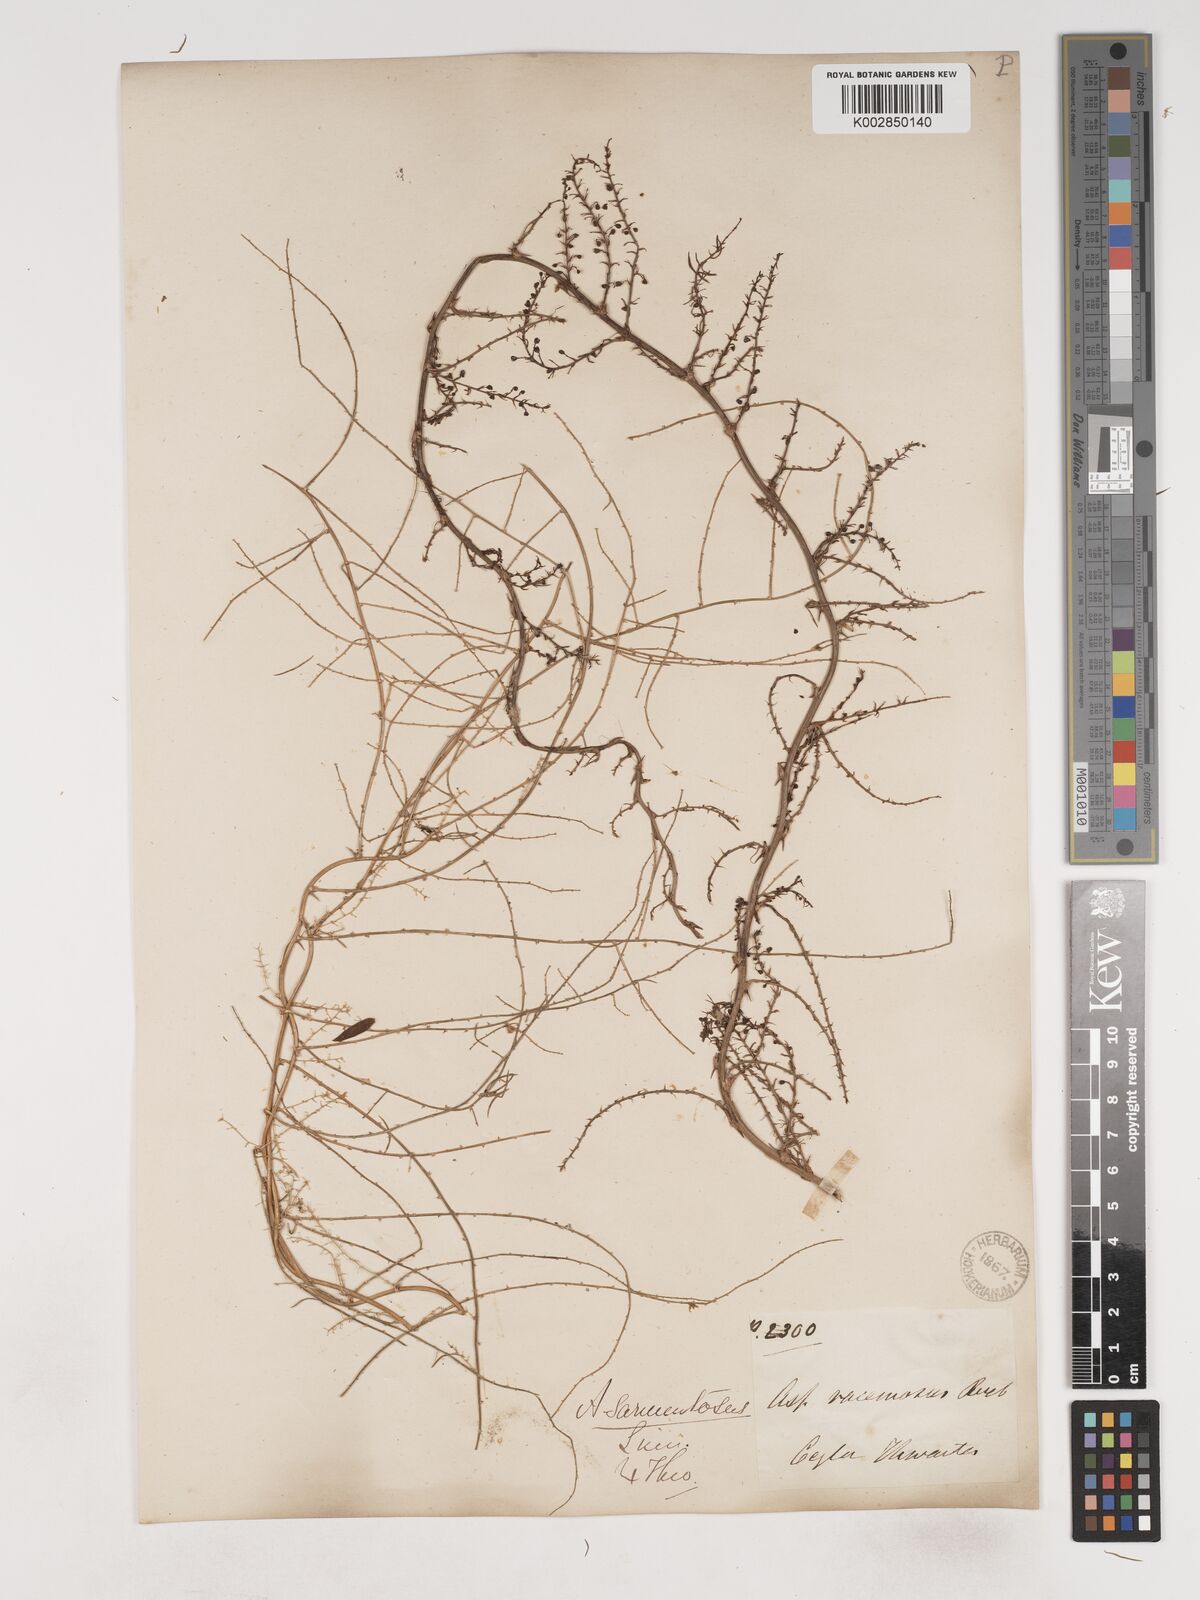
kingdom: Plantae
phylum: Tracheophyta
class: Liliopsida
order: Asparagales
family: Asparagaceae
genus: Asparagus
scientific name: Asparagus racemosus
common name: Asparagus-fern
